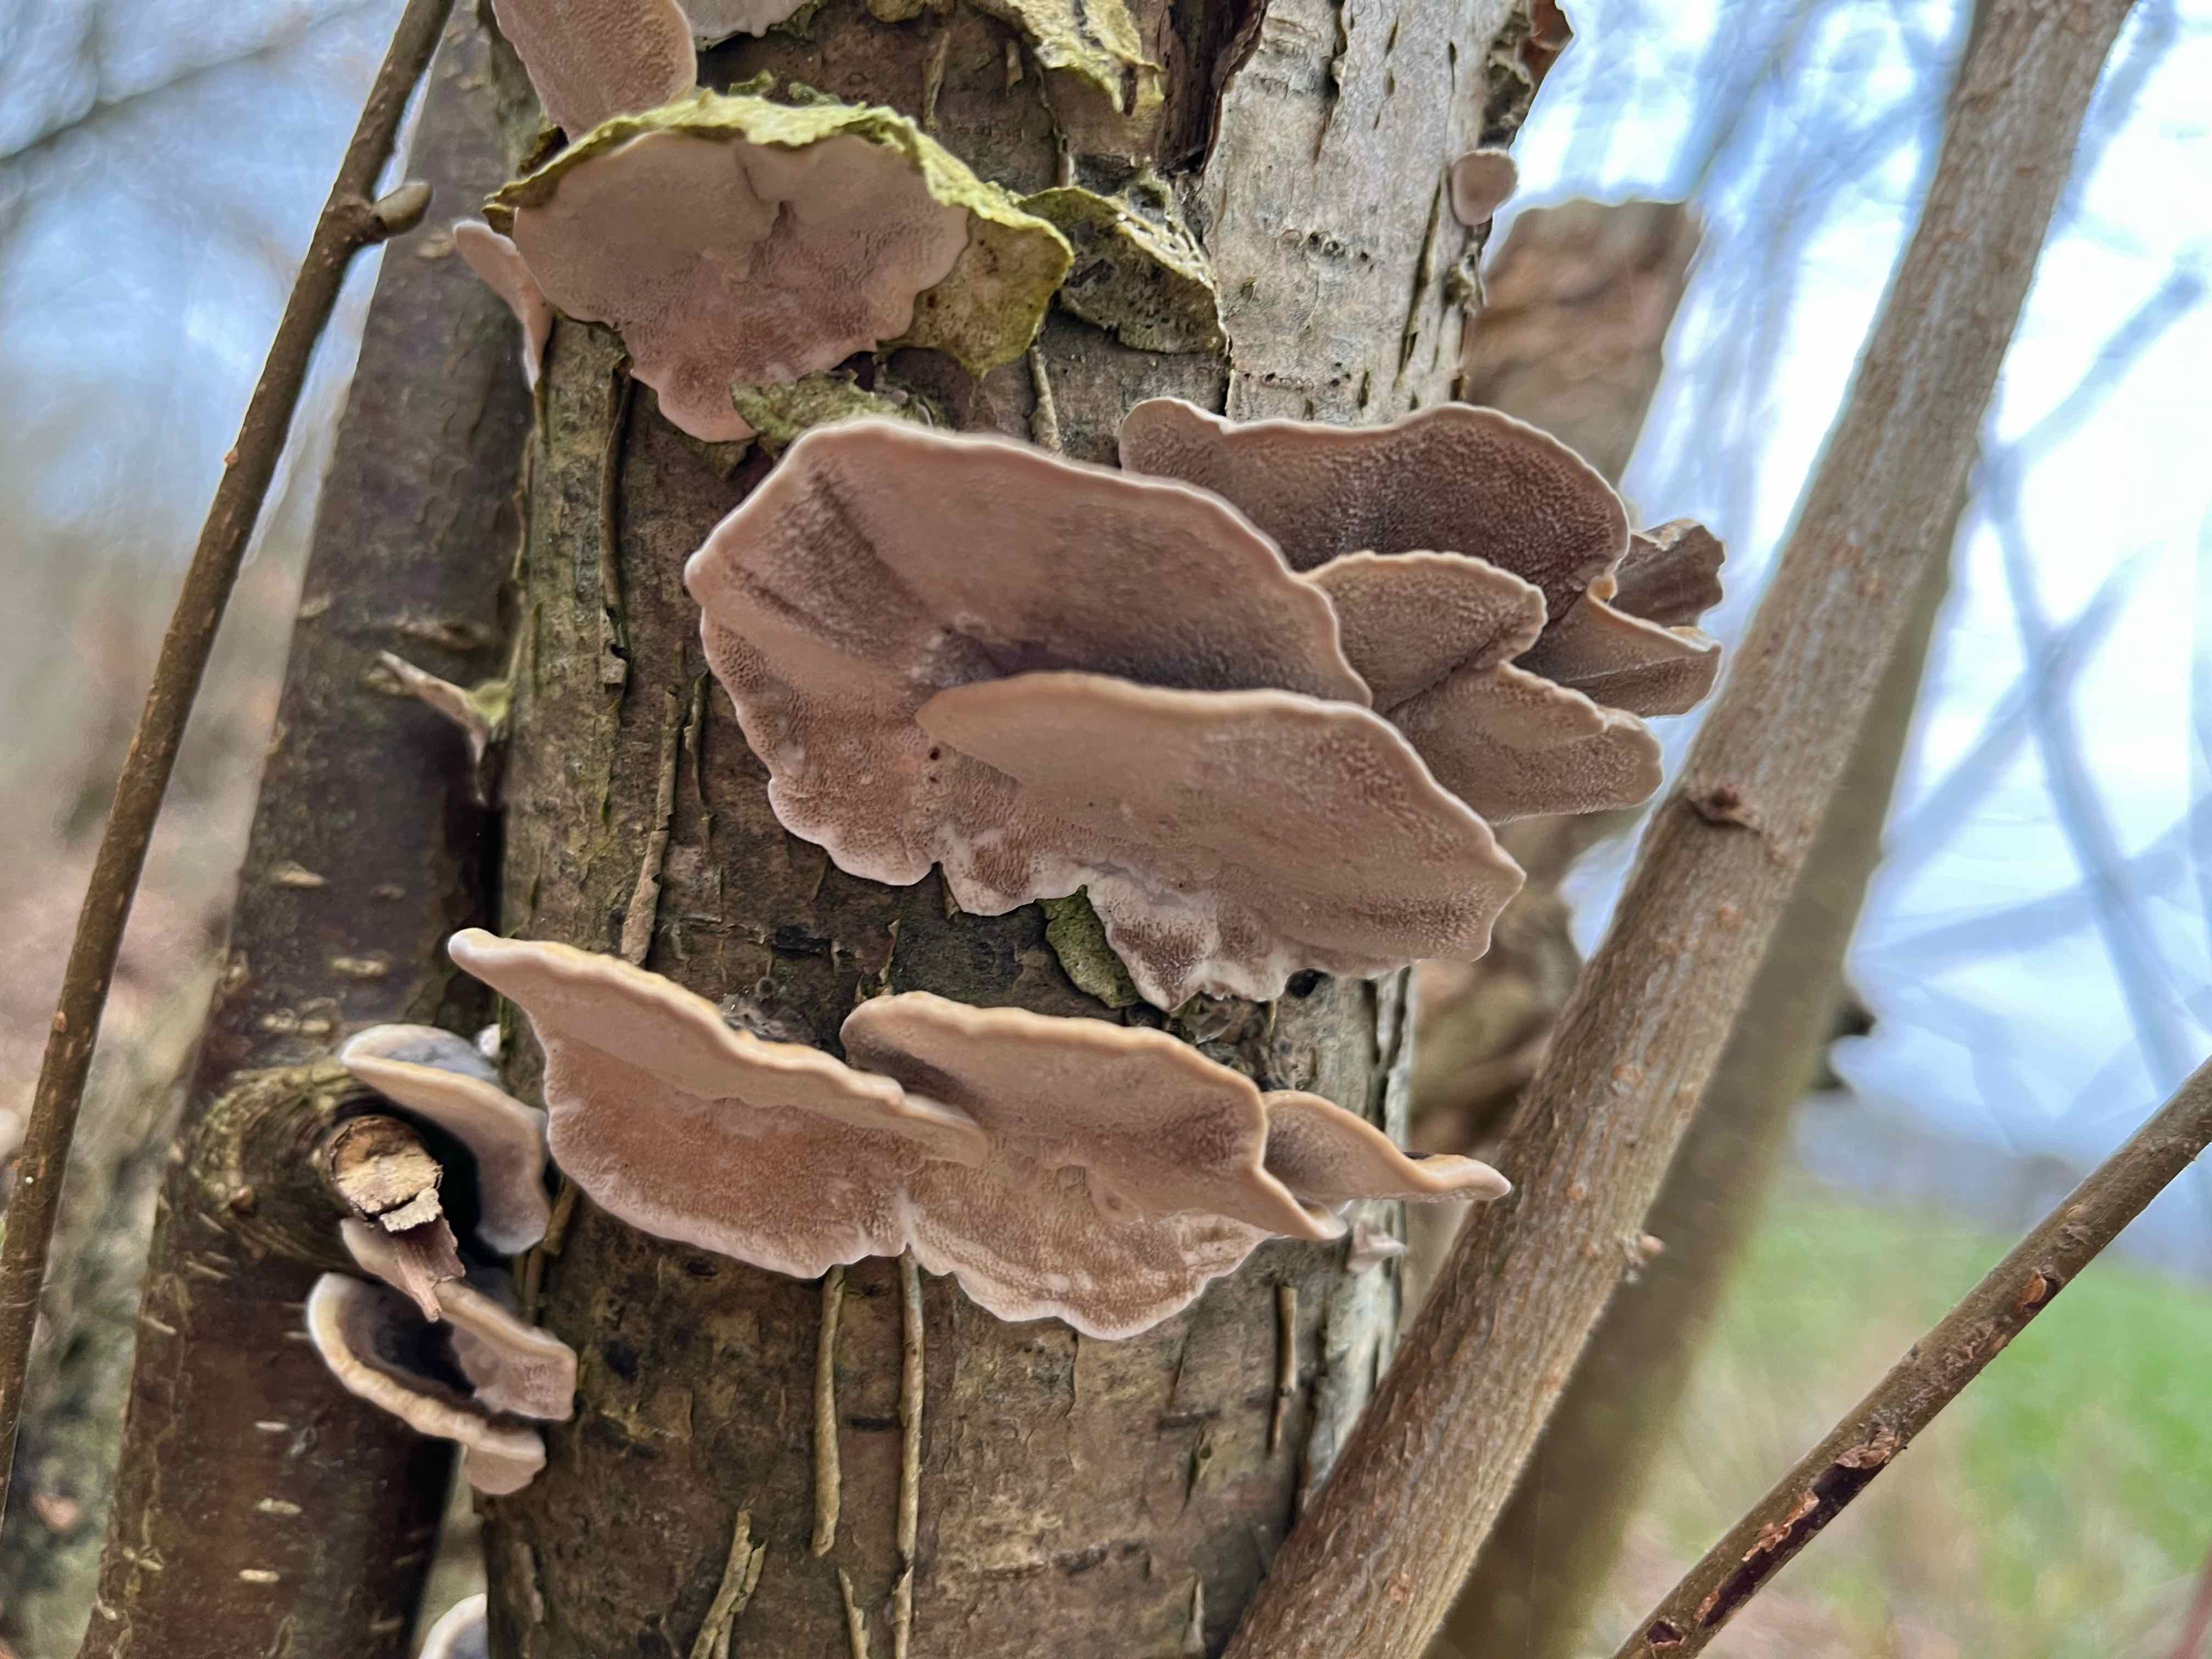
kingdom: Fungi
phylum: Basidiomycota
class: Agaricomycetes
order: Polyporales
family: Polyporaceae
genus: Trametes
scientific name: Trametes versicolor
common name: broget læderporesvamp
